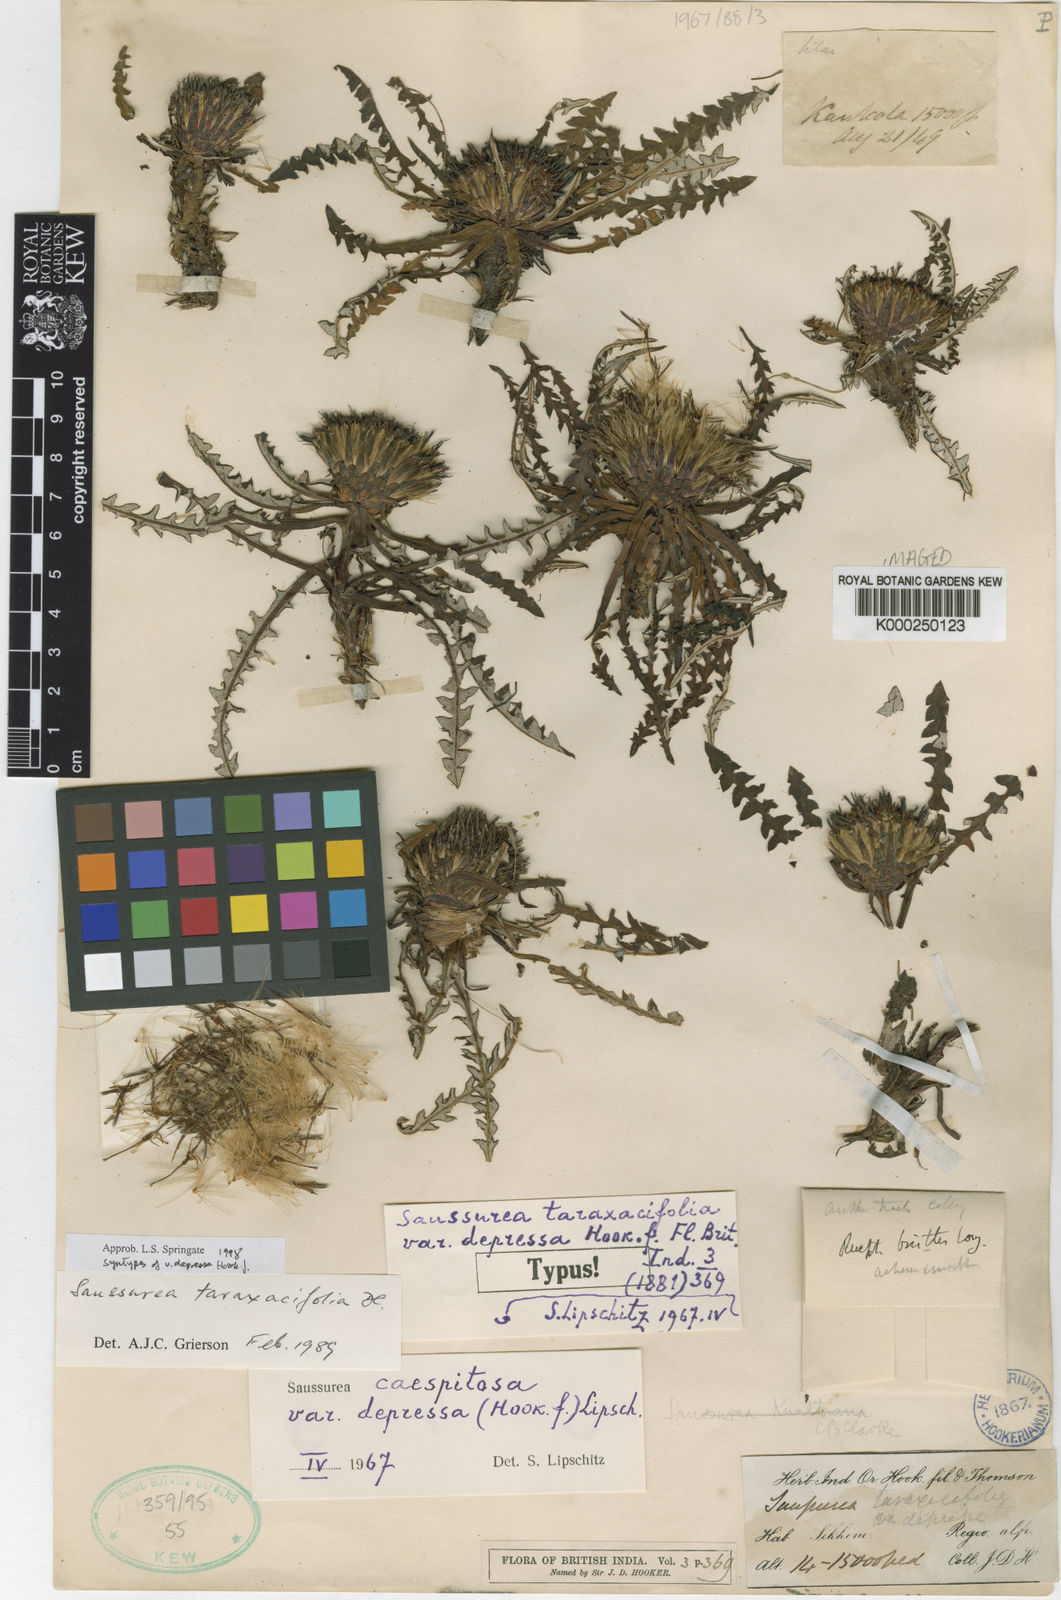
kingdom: Plantae
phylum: Tracheophyta
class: Magnoliopsida
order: Asterales
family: Asteraceae
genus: Saussurea
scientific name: Saussurea taraxacifolia
